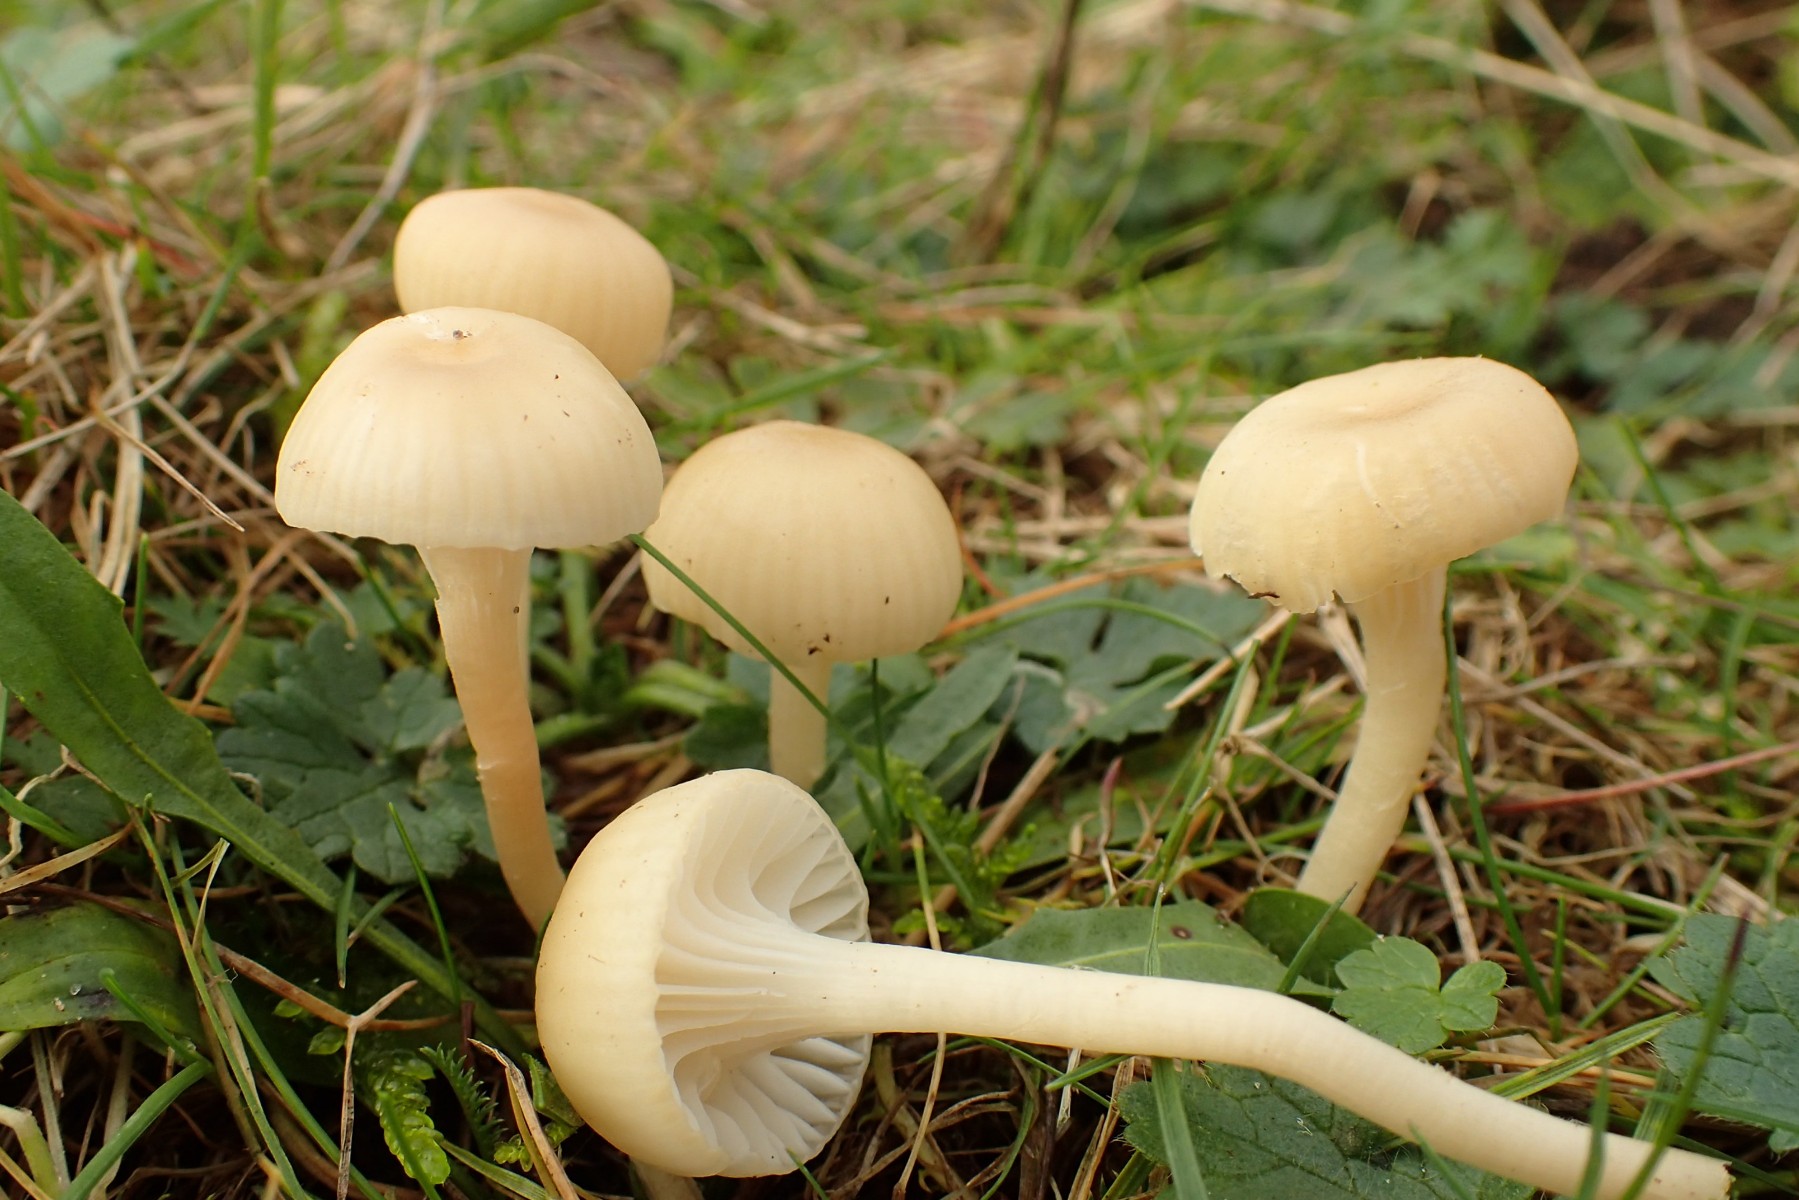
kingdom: Fungi
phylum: Basidiomycota
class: Agaricomycetes
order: Agaricales
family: Hygrophoraceae
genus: Cuphophyllus
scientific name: Cuphophyllus russocoriaceus
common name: ruslæder-vokshat
